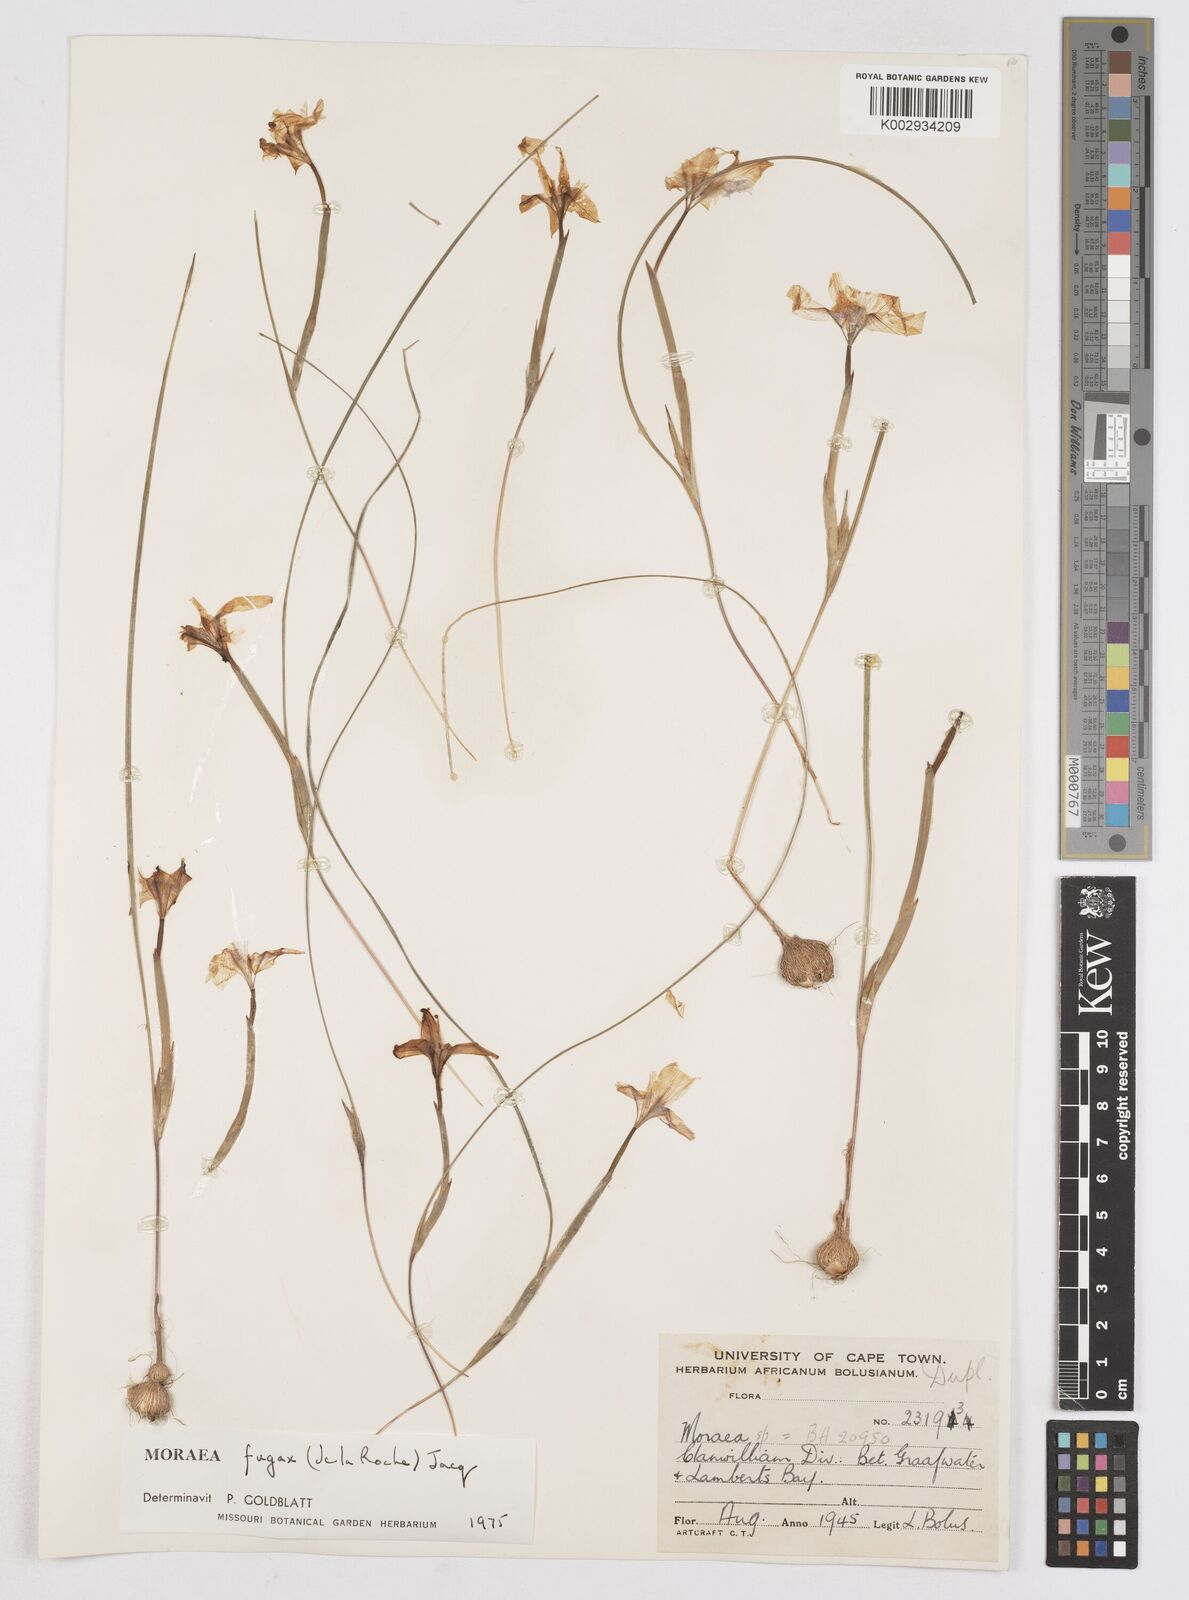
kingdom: Plantae
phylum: Tracheophyta
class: Liliopsida
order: Asparagales
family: Iridaceae
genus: Moraea
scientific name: Moraea fugax
